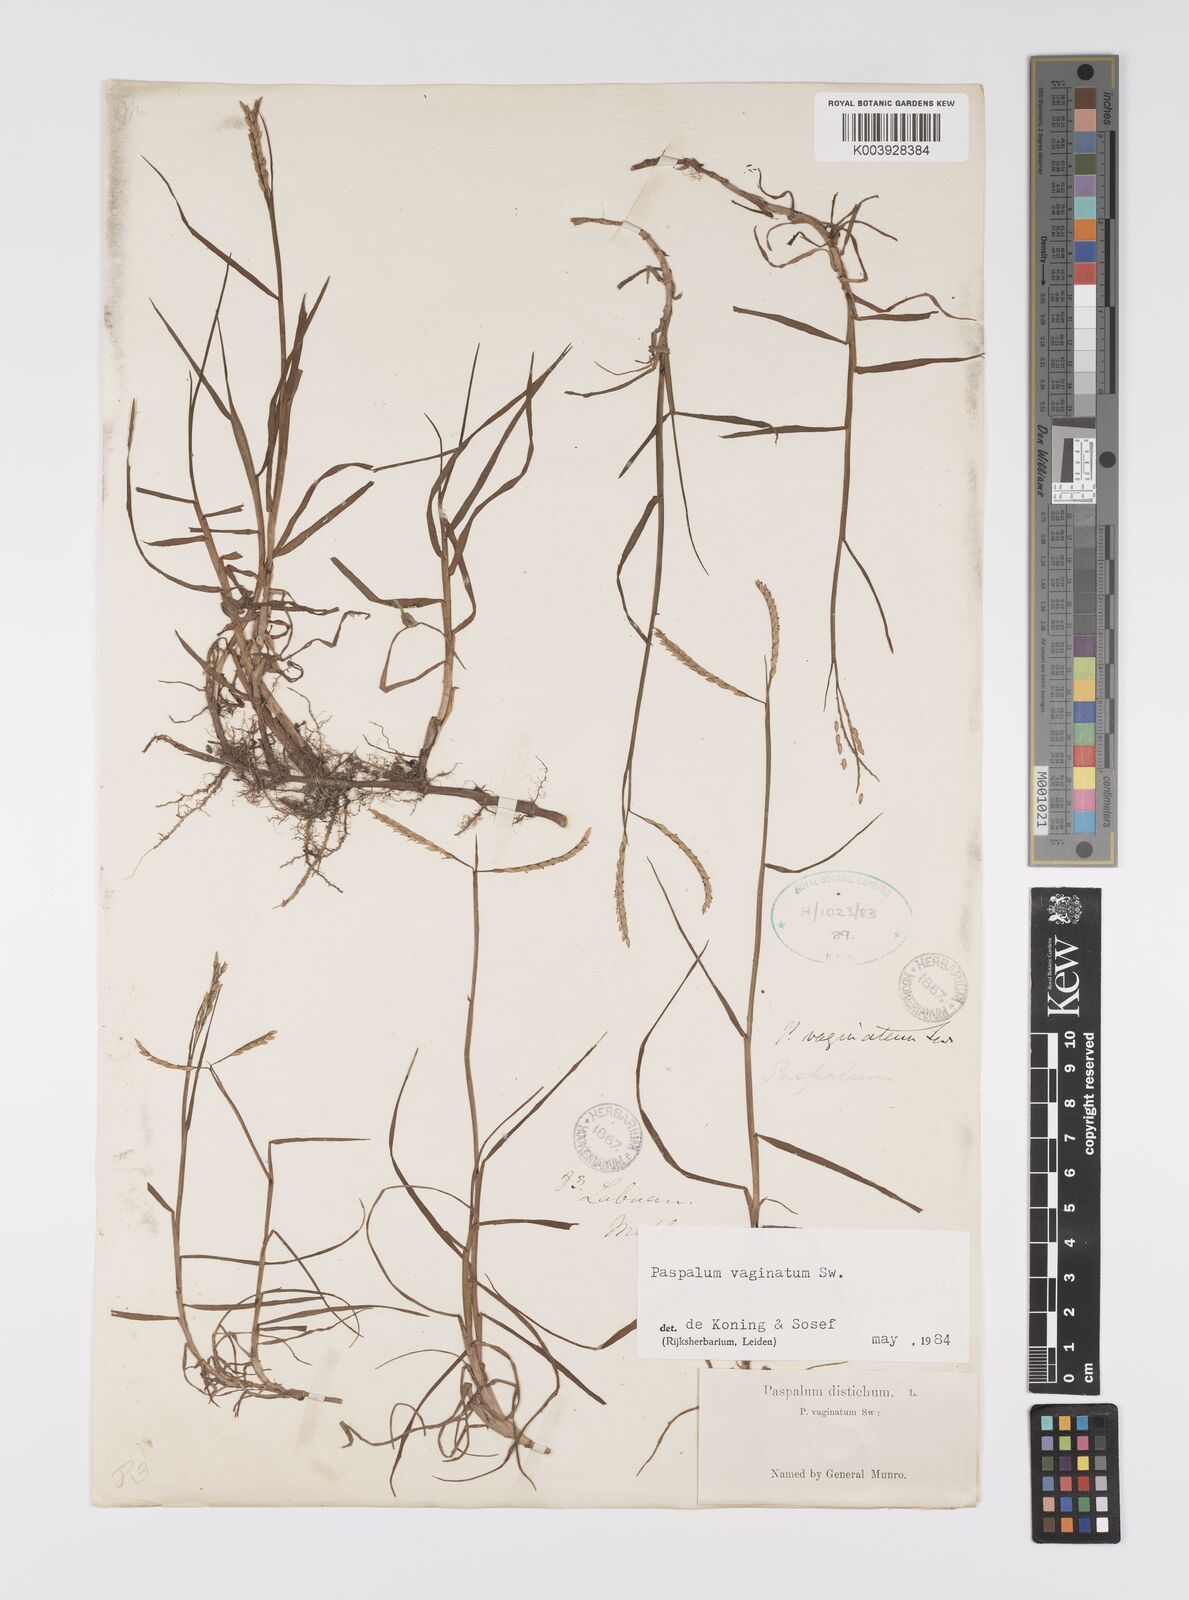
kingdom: Plantae
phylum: Tracheophyta
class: Liliopsida
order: Poales
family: Poaceae
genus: Paspalum
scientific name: Paspalum vaginatum
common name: Seashore paspalum
